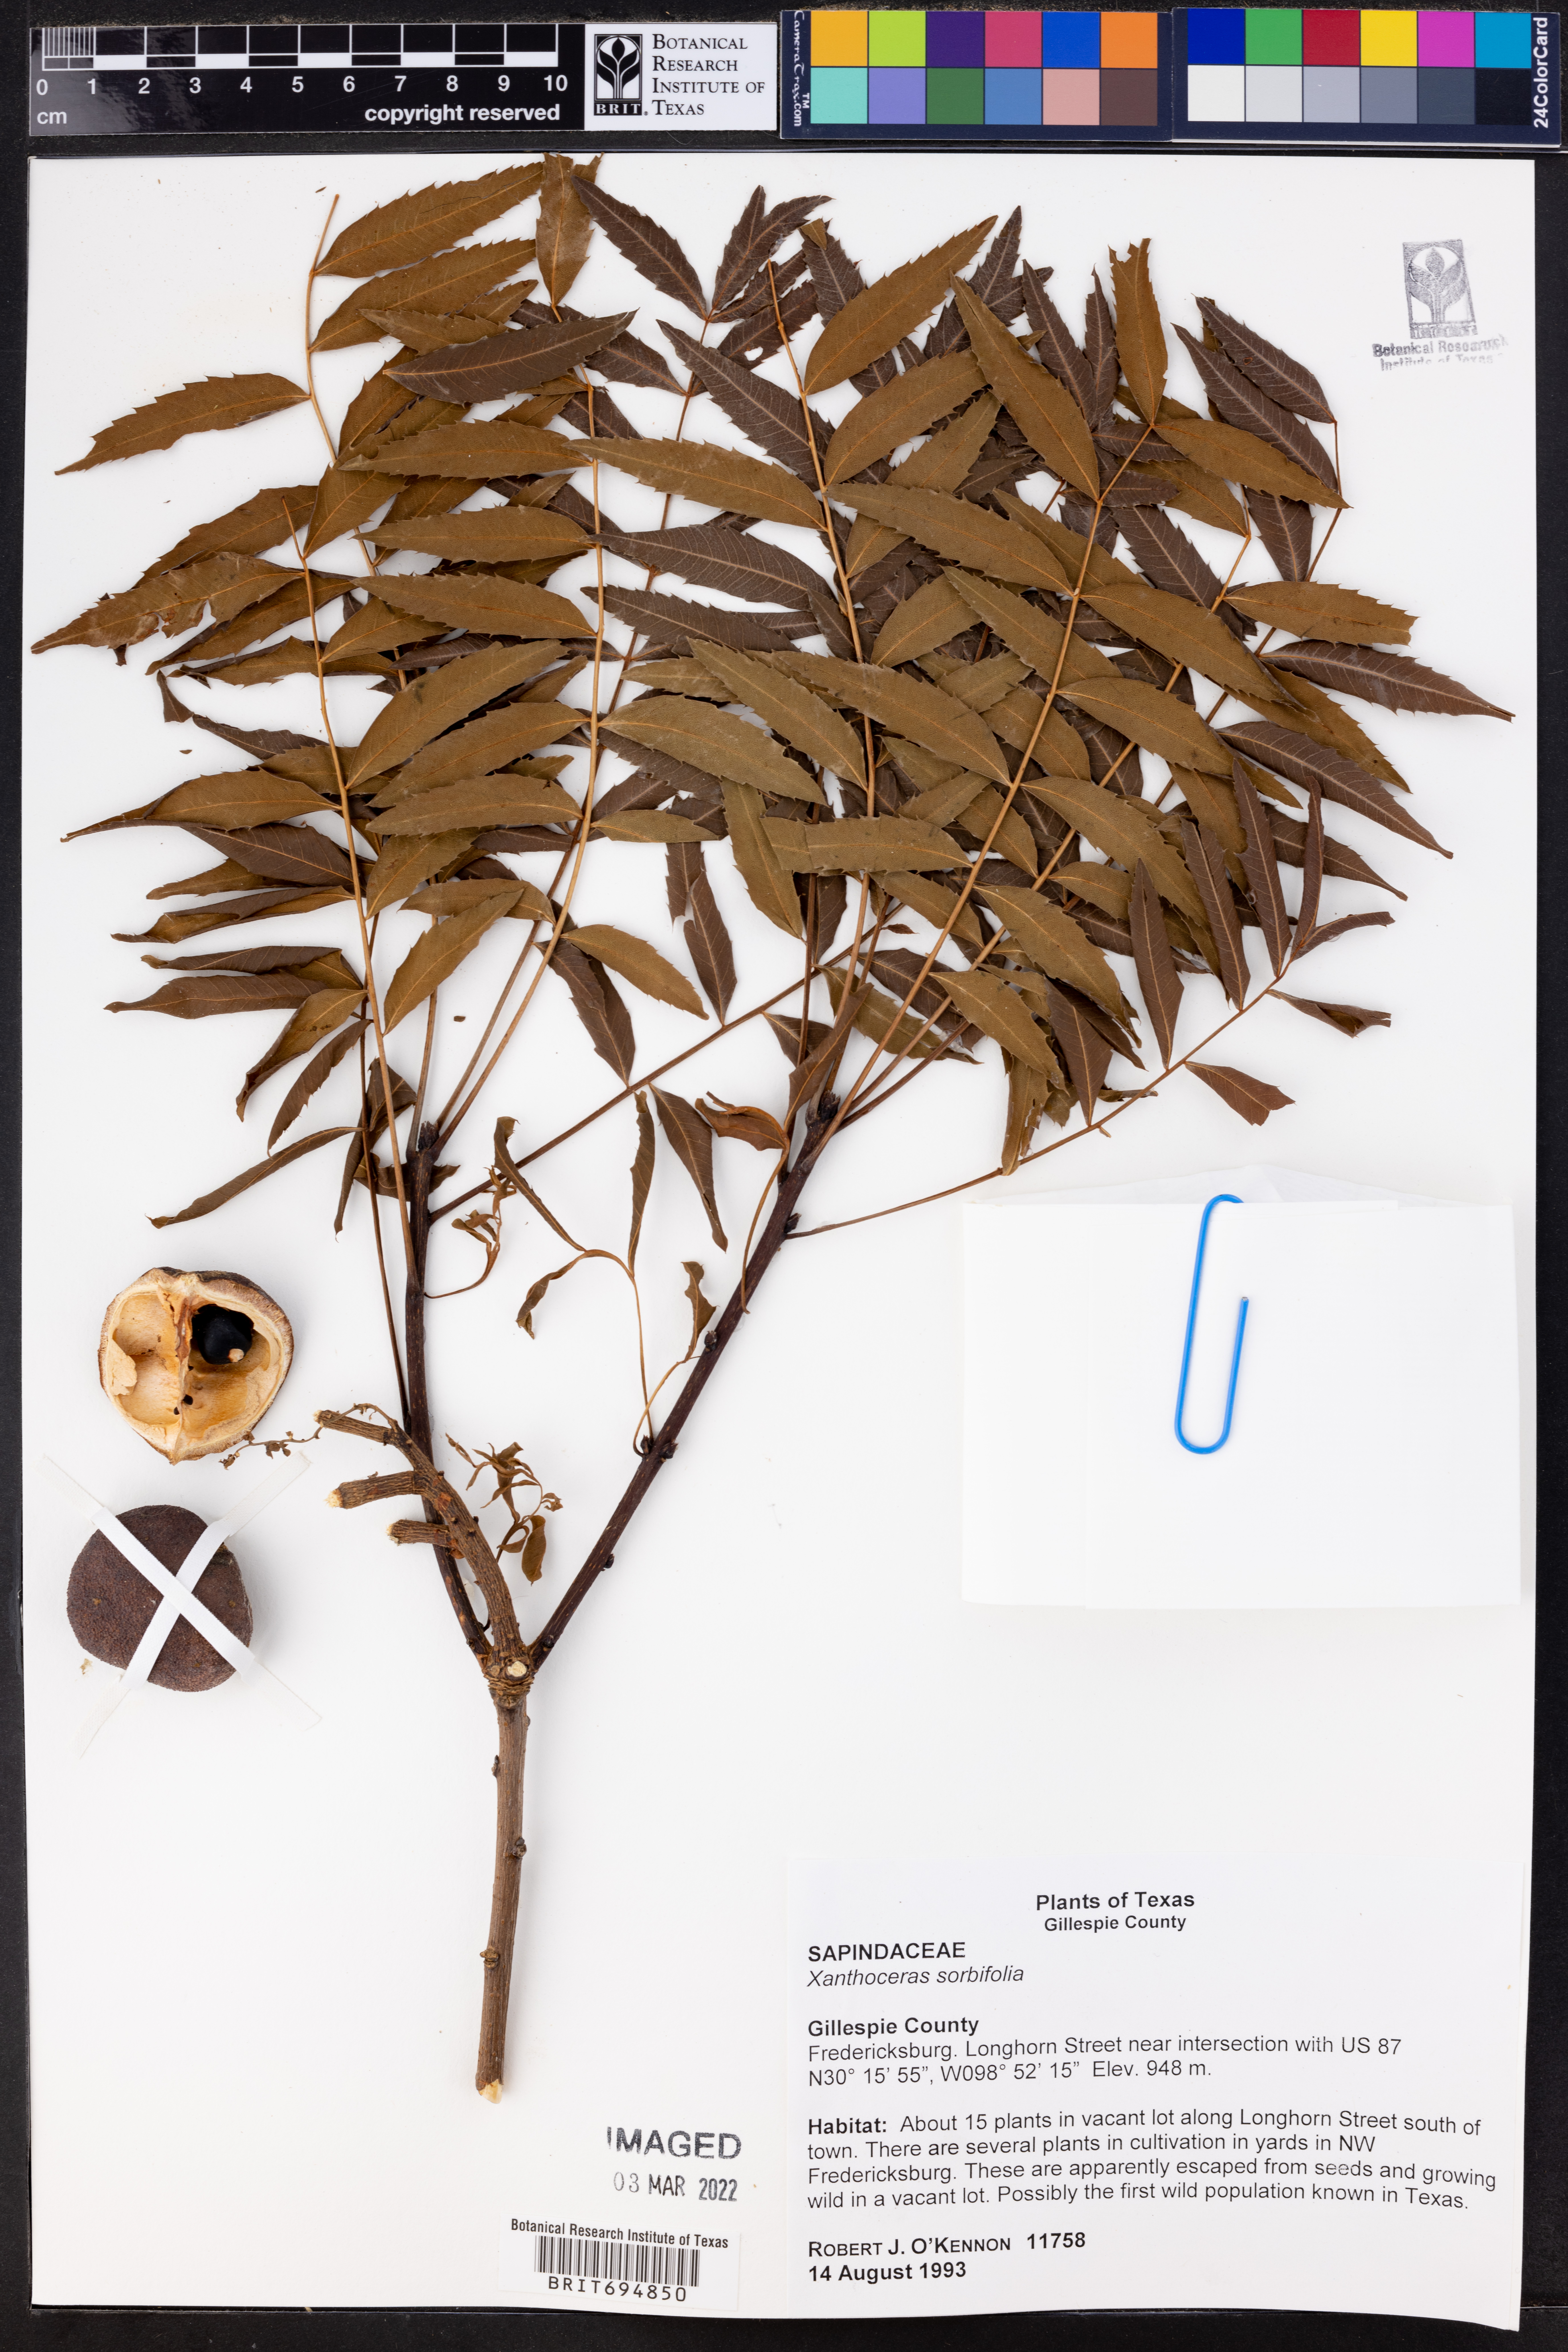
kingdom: Plantae
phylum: Tracheophyta
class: Magnoliopsida
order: Sapindales
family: Sapindaceae
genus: Xanthoceras
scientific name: Xanthoceras sorbifolia
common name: Yellow-horn
